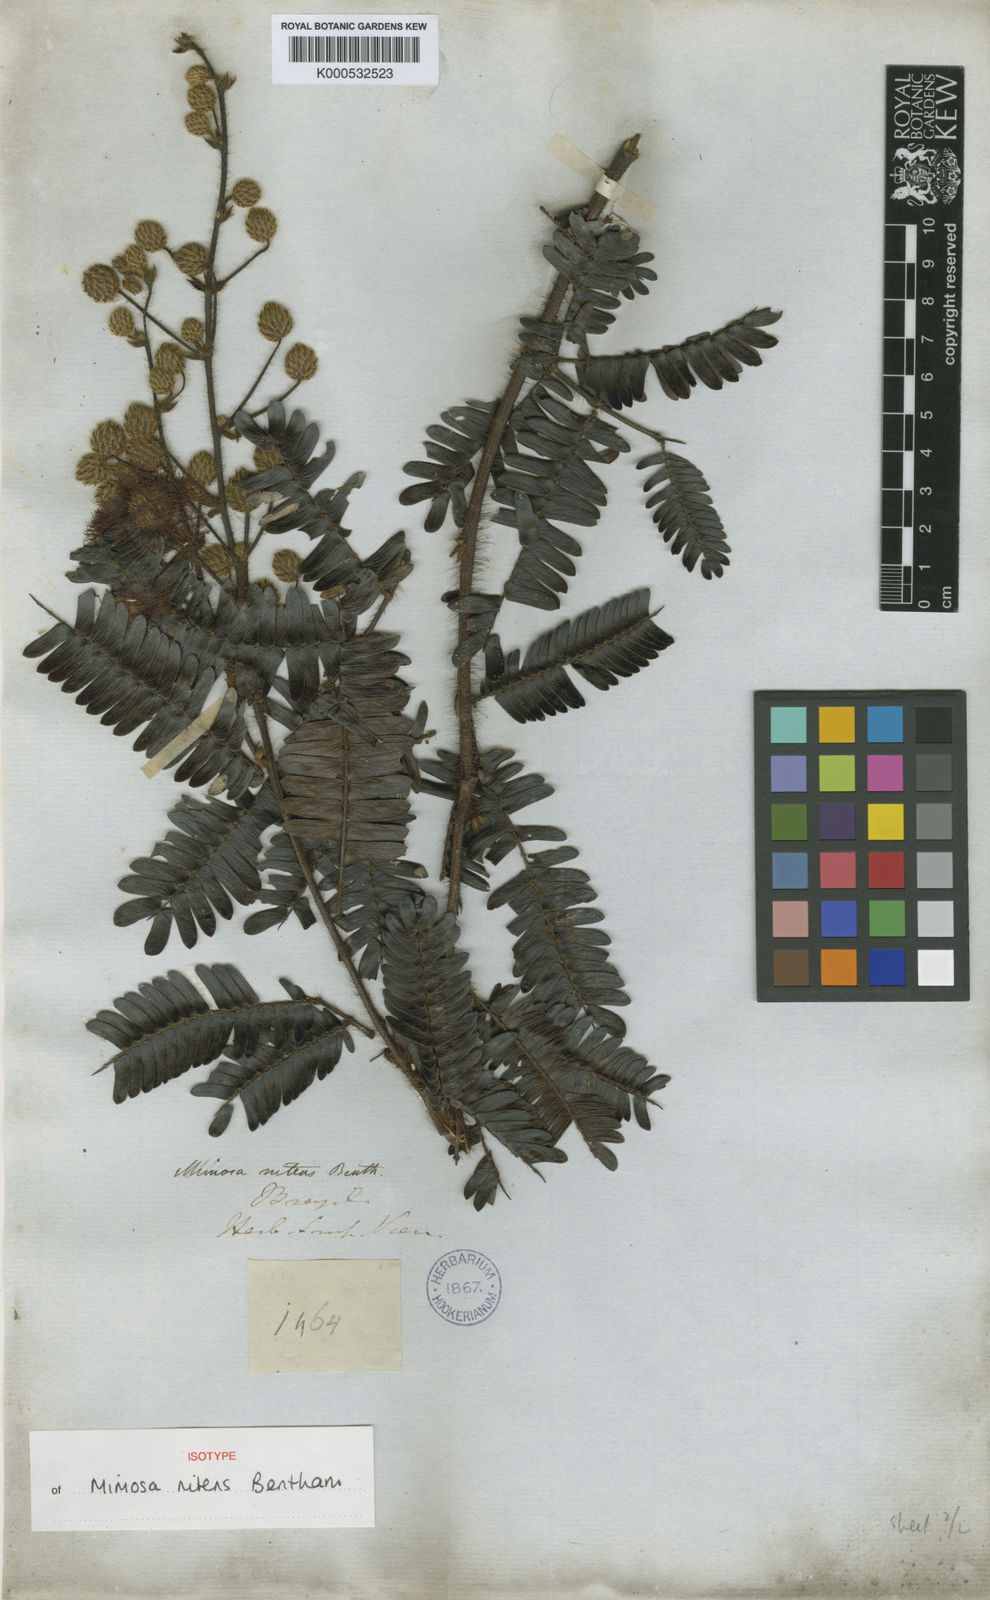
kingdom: Plantae
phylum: Tracheophyta
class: Magnoliopsida
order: Fabales
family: Fabaceae
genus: Mimosa
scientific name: Mimosa nitens
